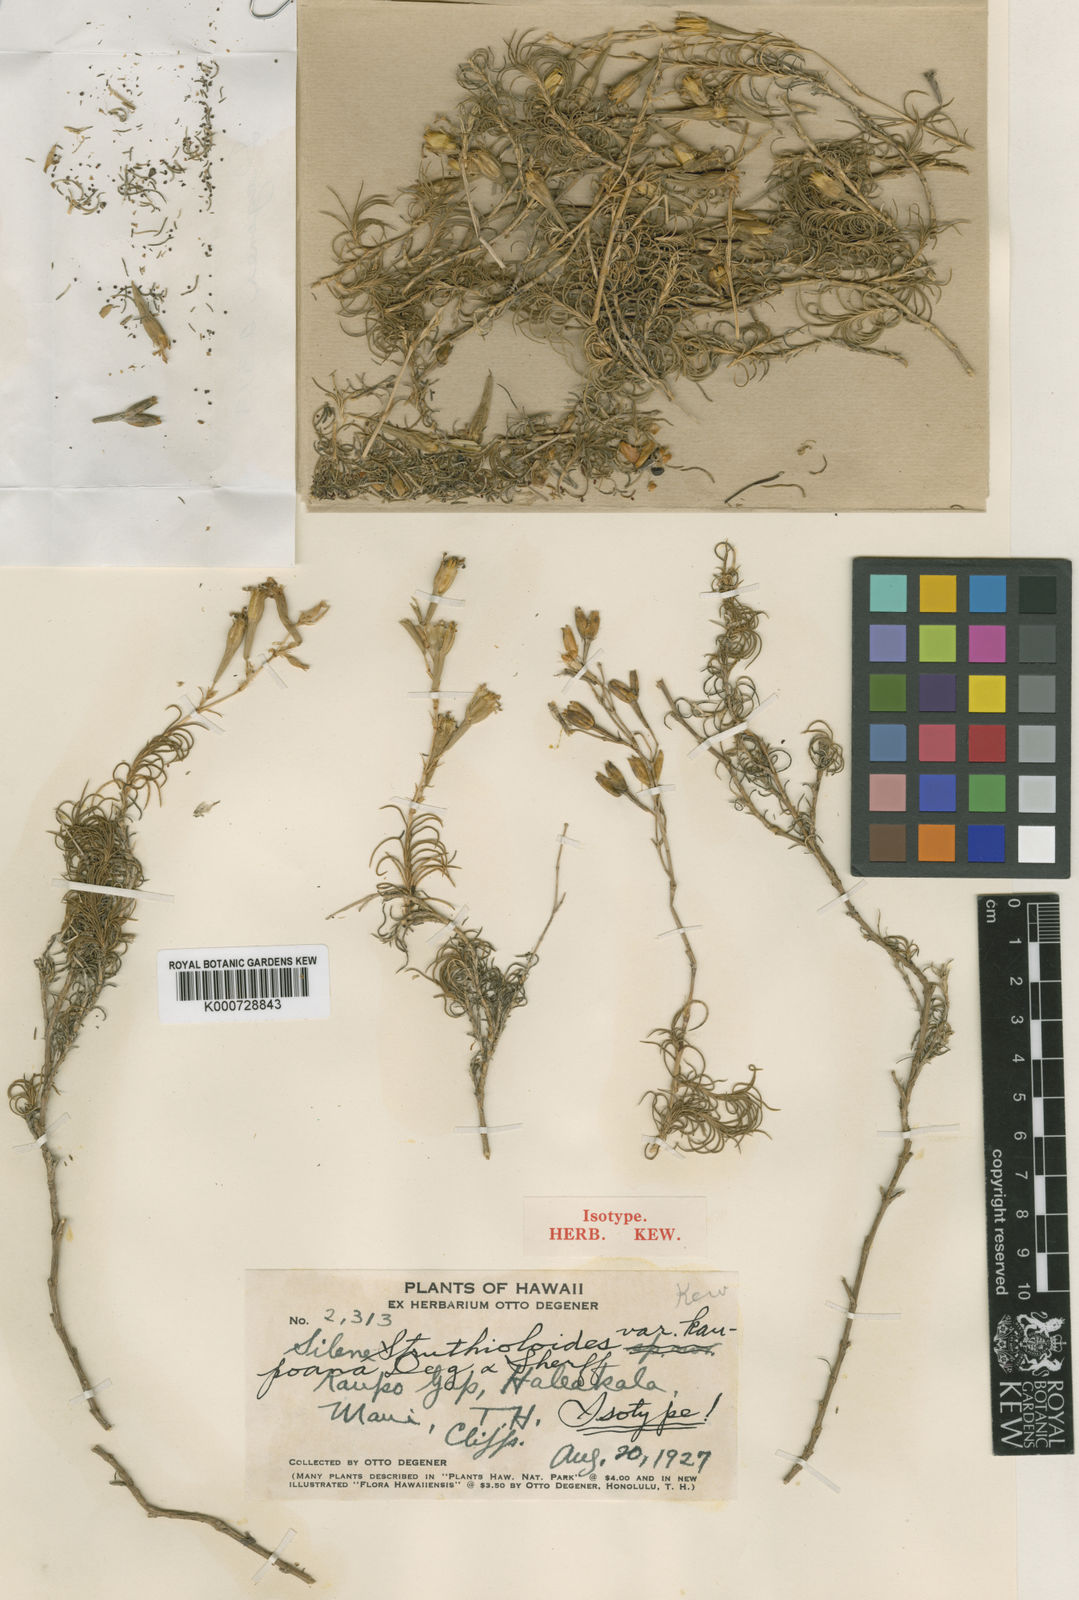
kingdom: Plantae
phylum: Tracheophyta
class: Magnoliopsida
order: Caryophyllales
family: Caryophyllaceae
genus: Silene
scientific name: Silene hawaiiensis
